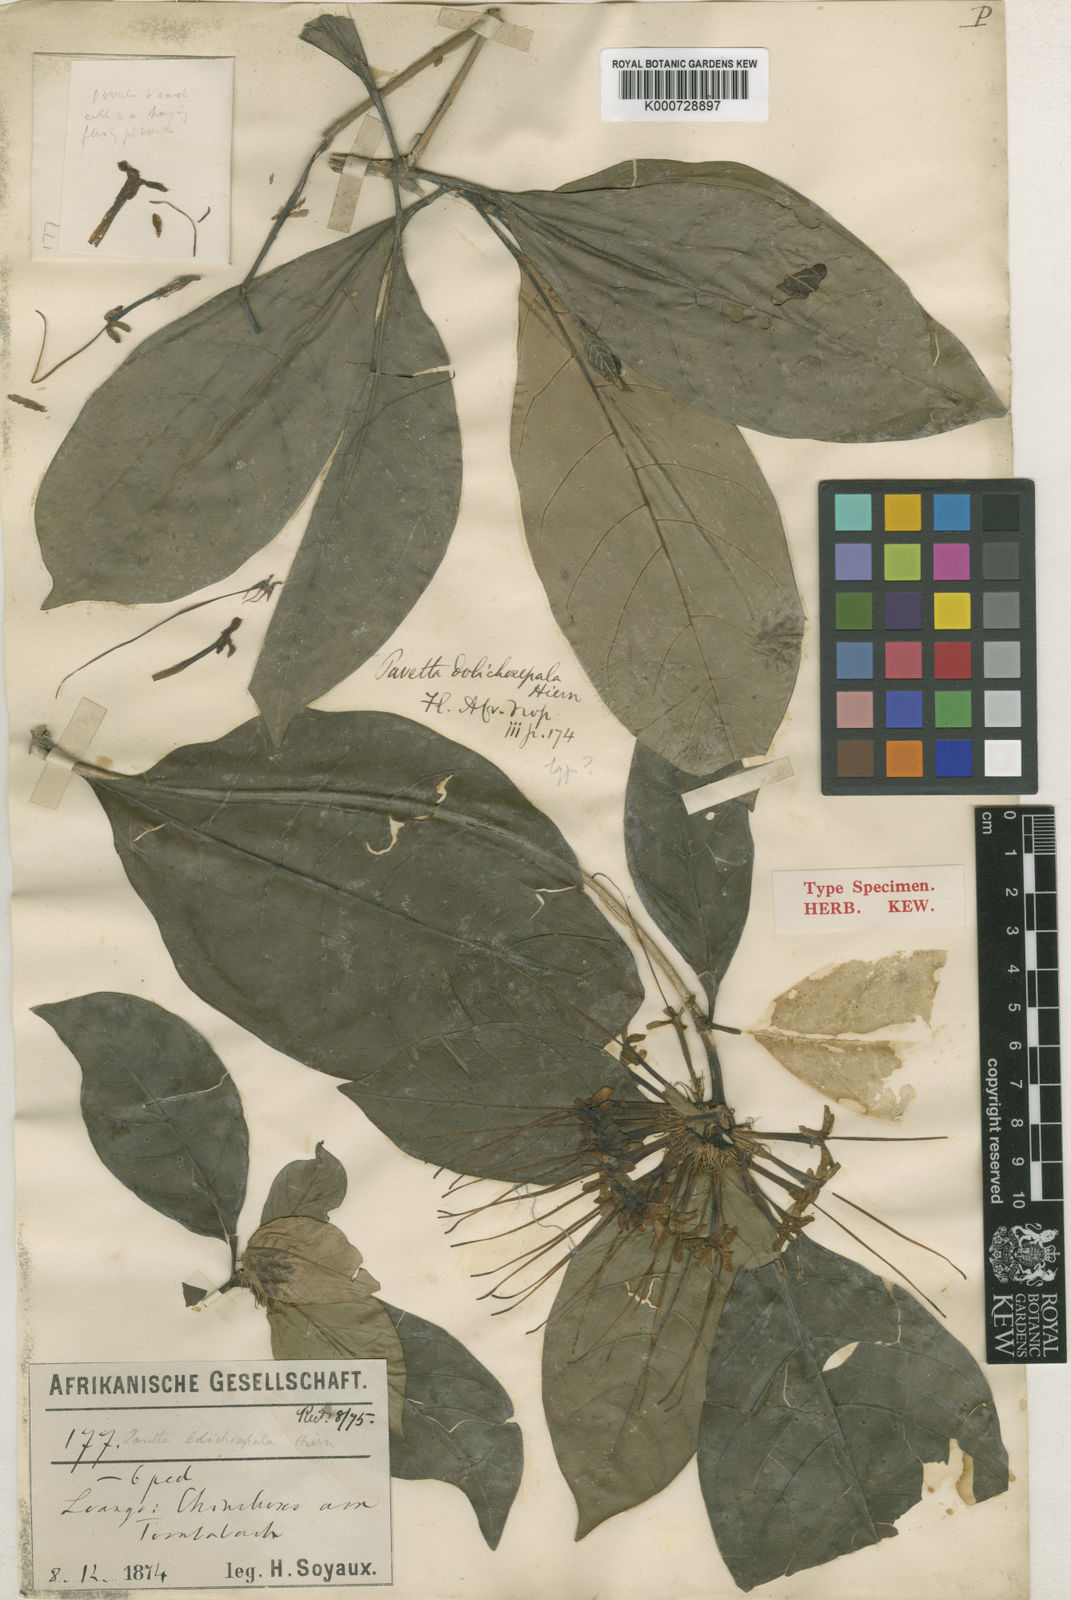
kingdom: Plantae
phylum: Tracheophyta
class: Magnoliopsida
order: Gentianales
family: Rubiaceae
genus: Pavetta
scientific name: Pavetta dolichosepala
